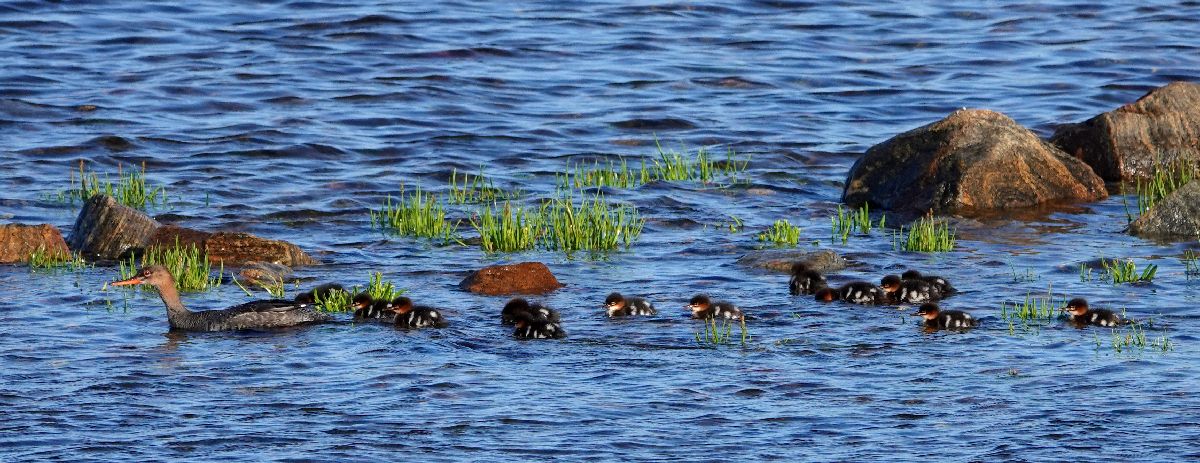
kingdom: Animalia
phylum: Chordata
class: Aves
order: Anseriformes
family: Anatidae
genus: Mergus
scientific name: Mergus serrator
